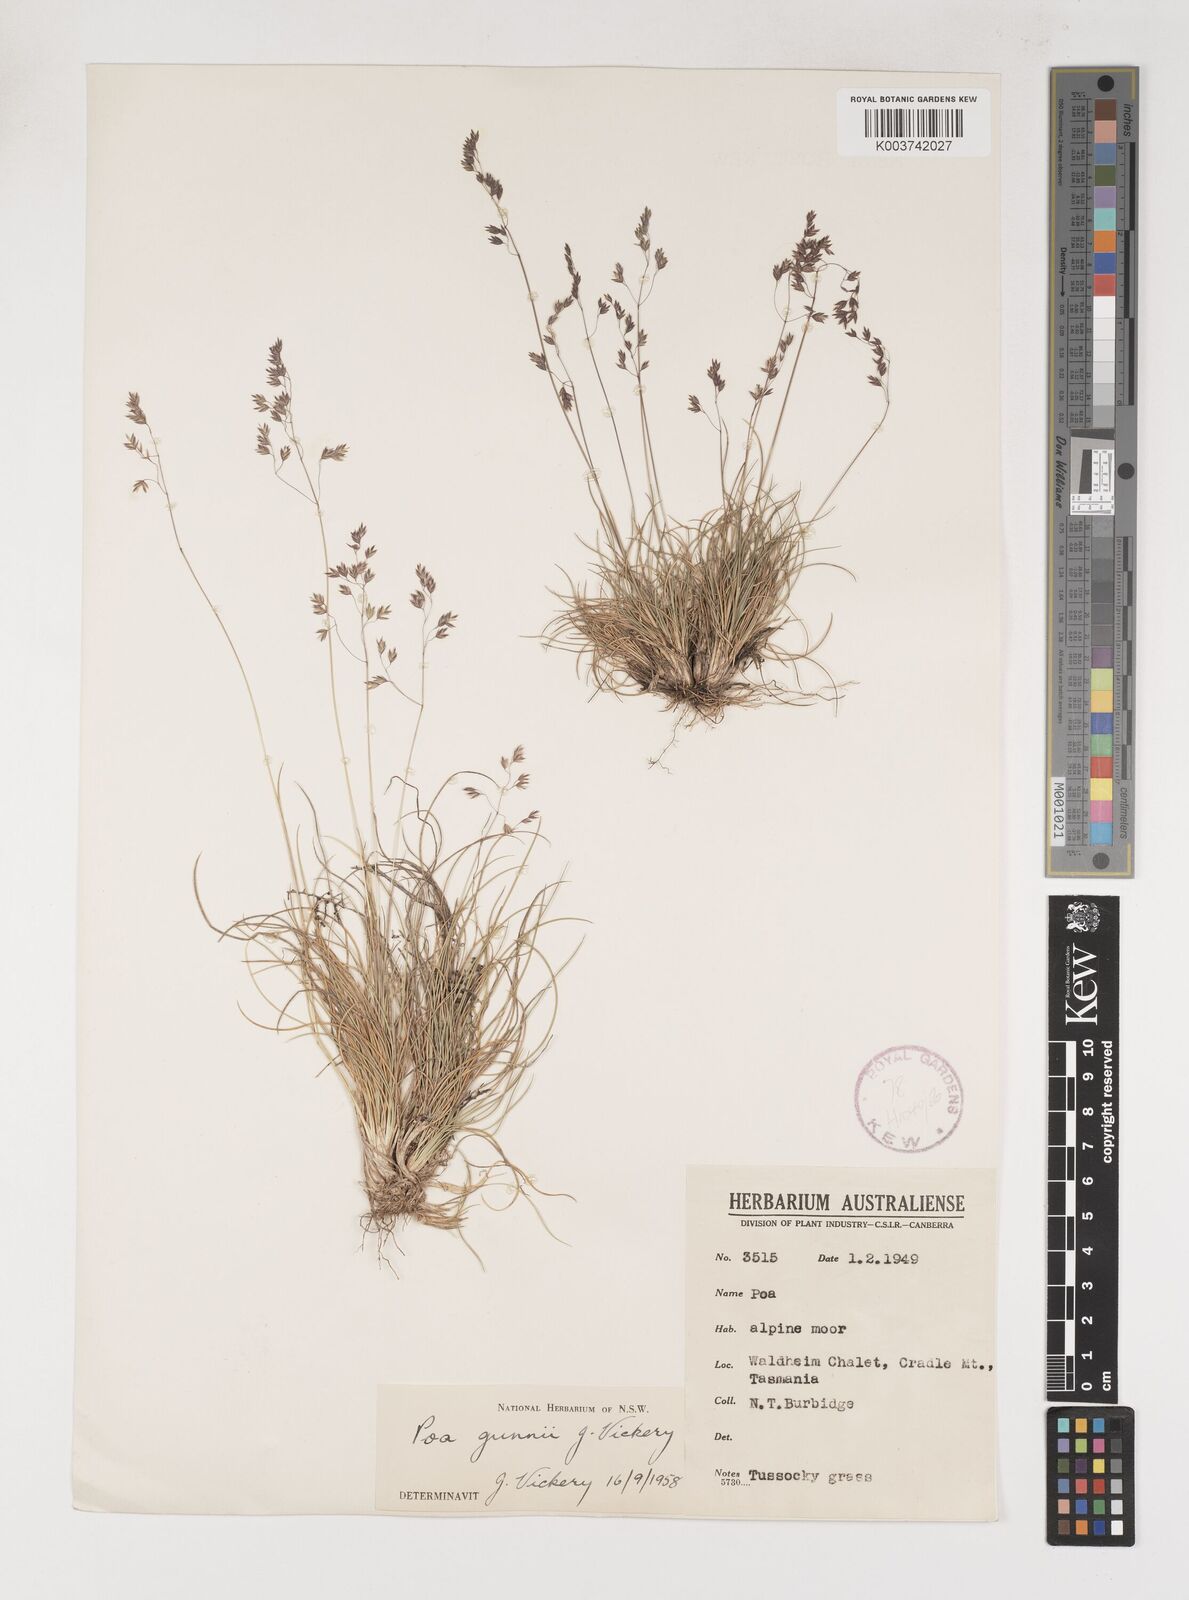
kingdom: Plantae
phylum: Tracheophyta
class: Liliopsida
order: Poales
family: Poaceae
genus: Poa
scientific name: Poa gunnii
